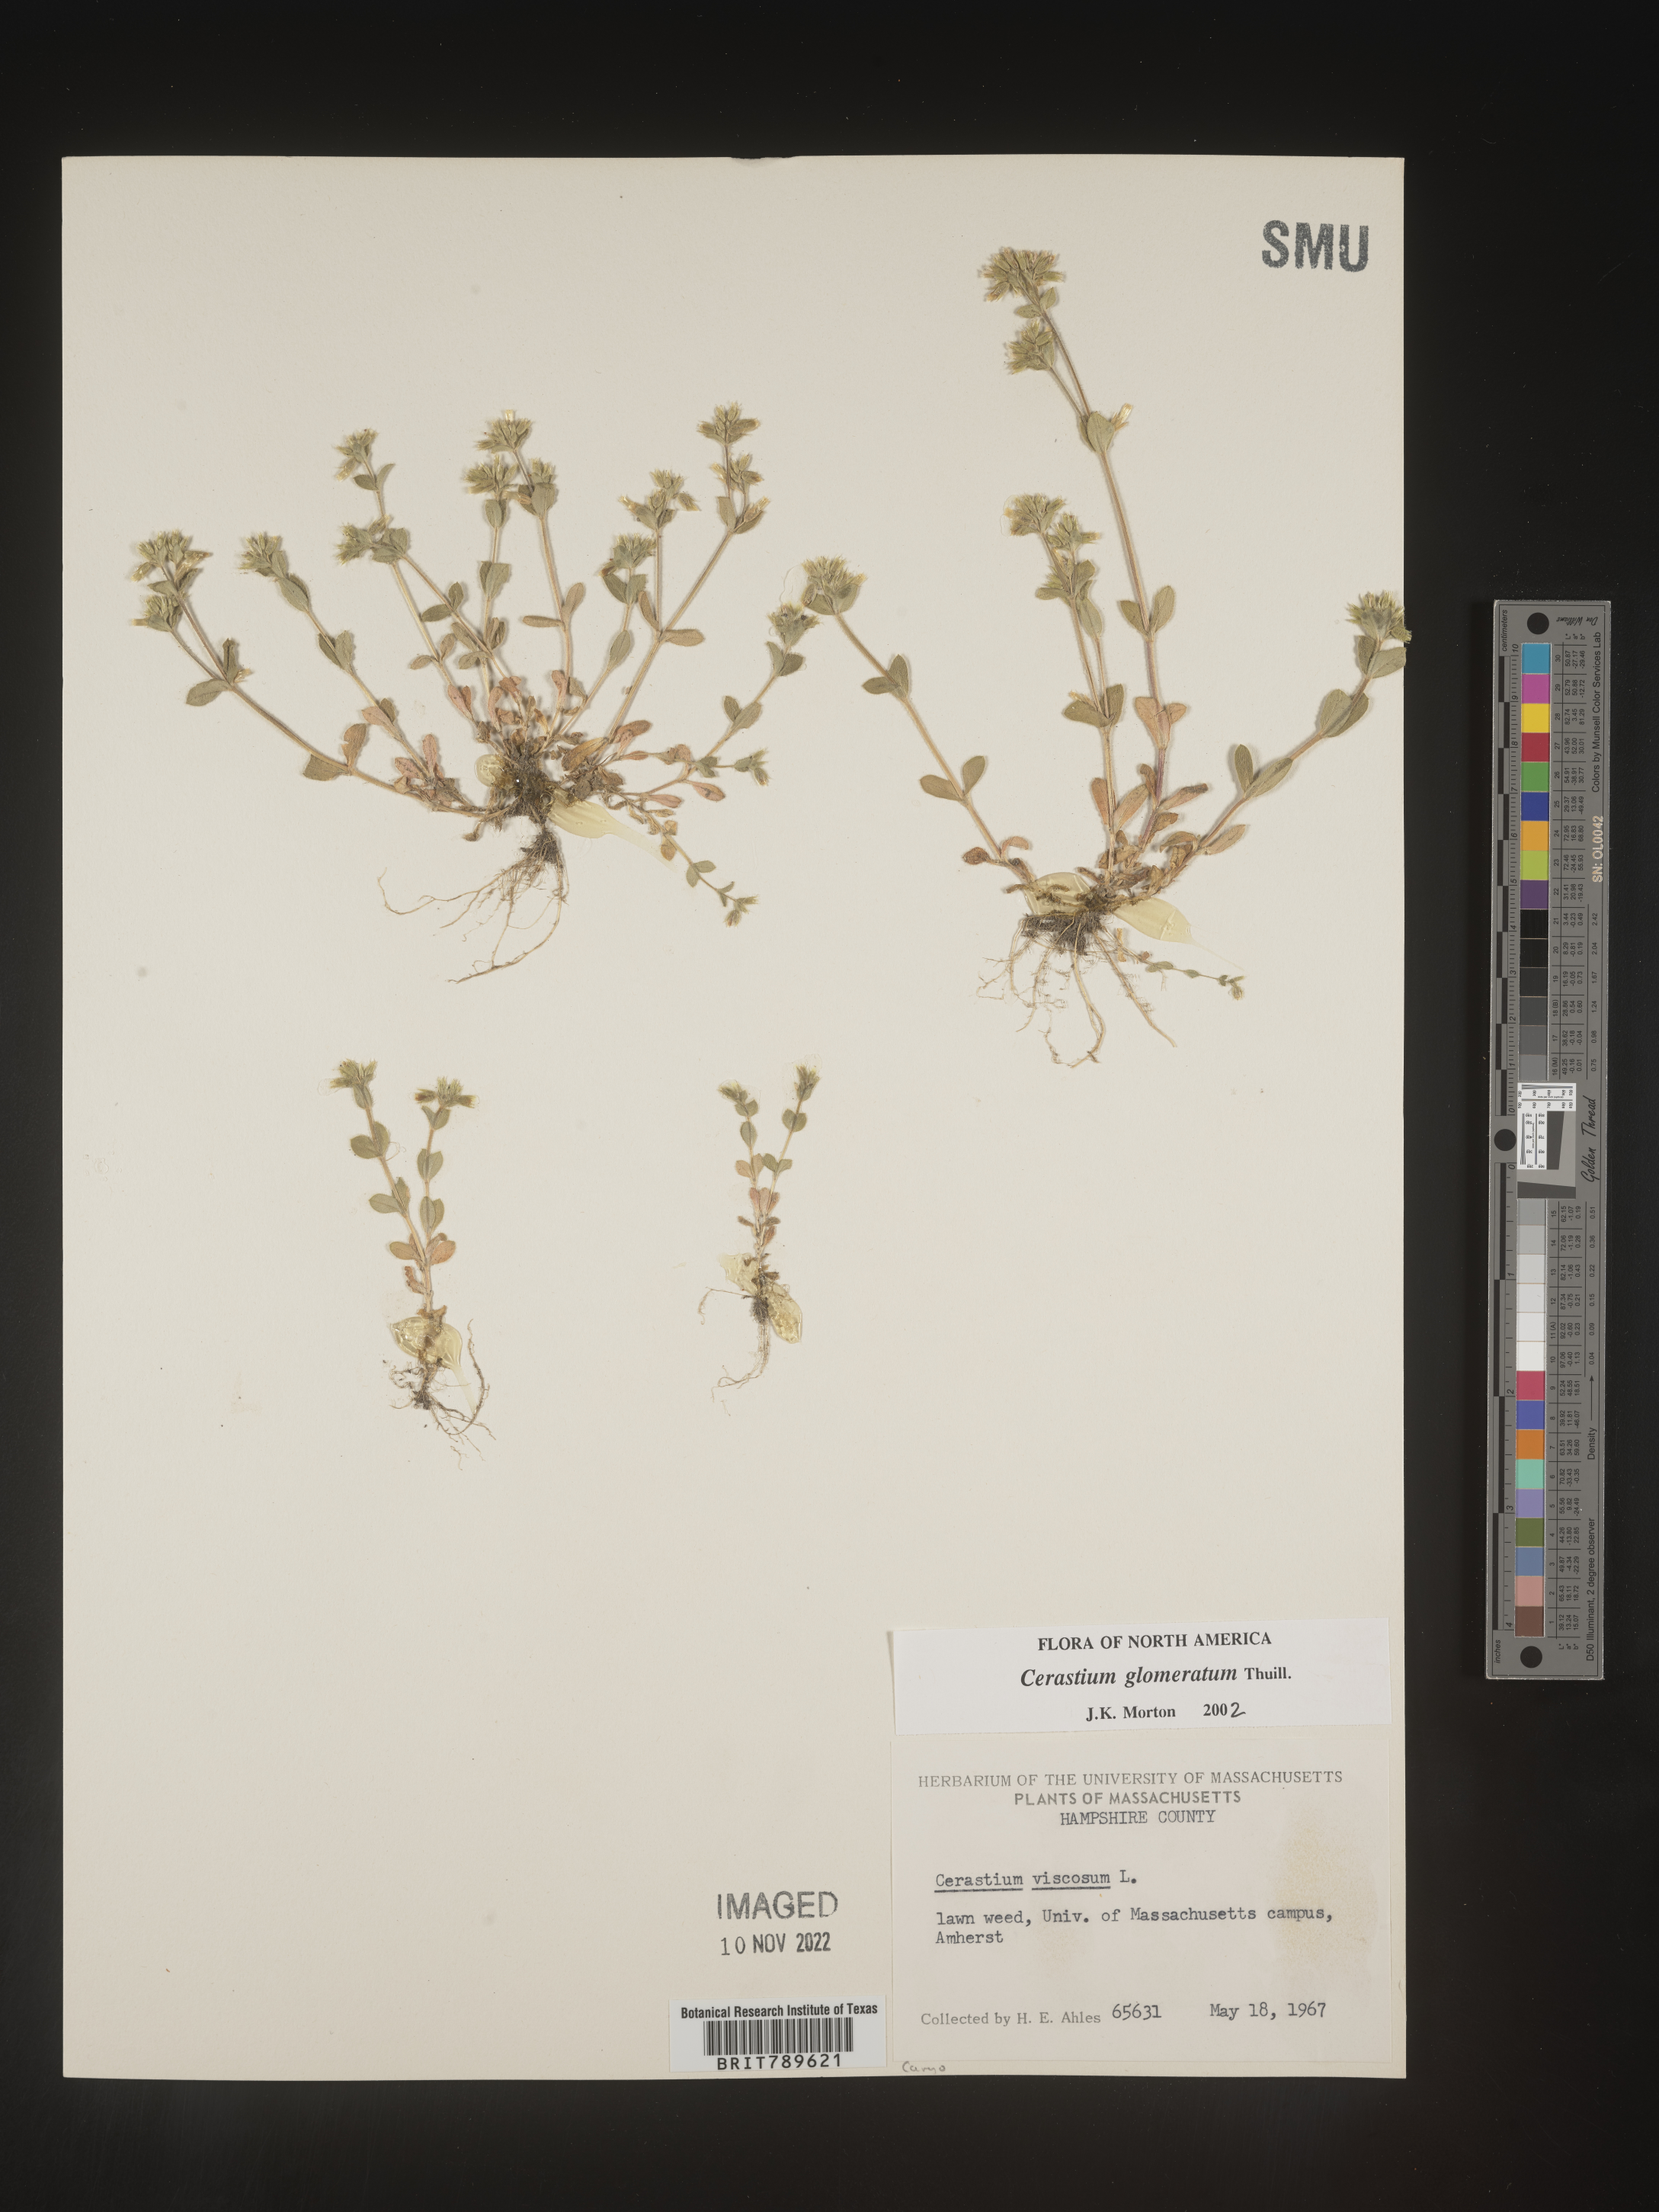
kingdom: Plantae
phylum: Tracheophyta
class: Magnoliopsida
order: Caryophyllales
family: Caryophyllaceae
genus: Cerastium
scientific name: Cerastium glomeratum
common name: Sticky chickweed
